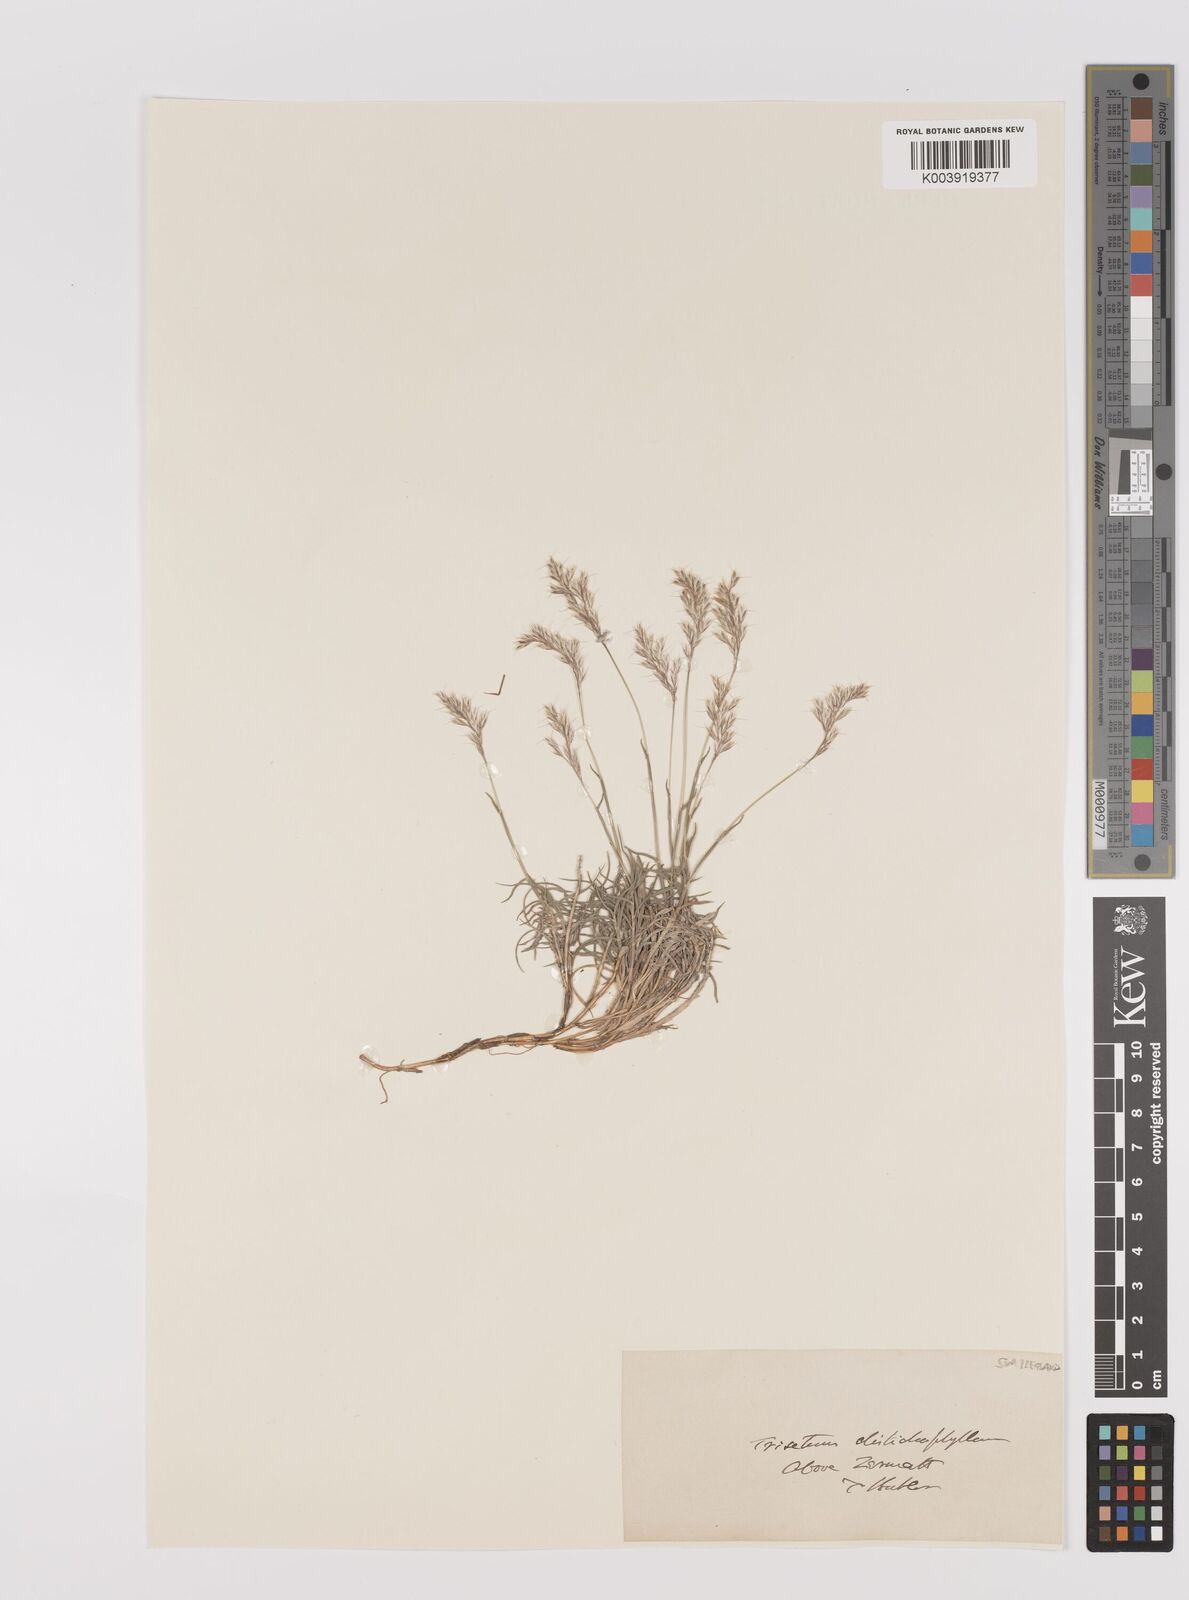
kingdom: Plantae
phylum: Tracheophyta
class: Liliopsida
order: Poales
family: Poaceae
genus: Acrospelion
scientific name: Acrospelion distichophyllum
